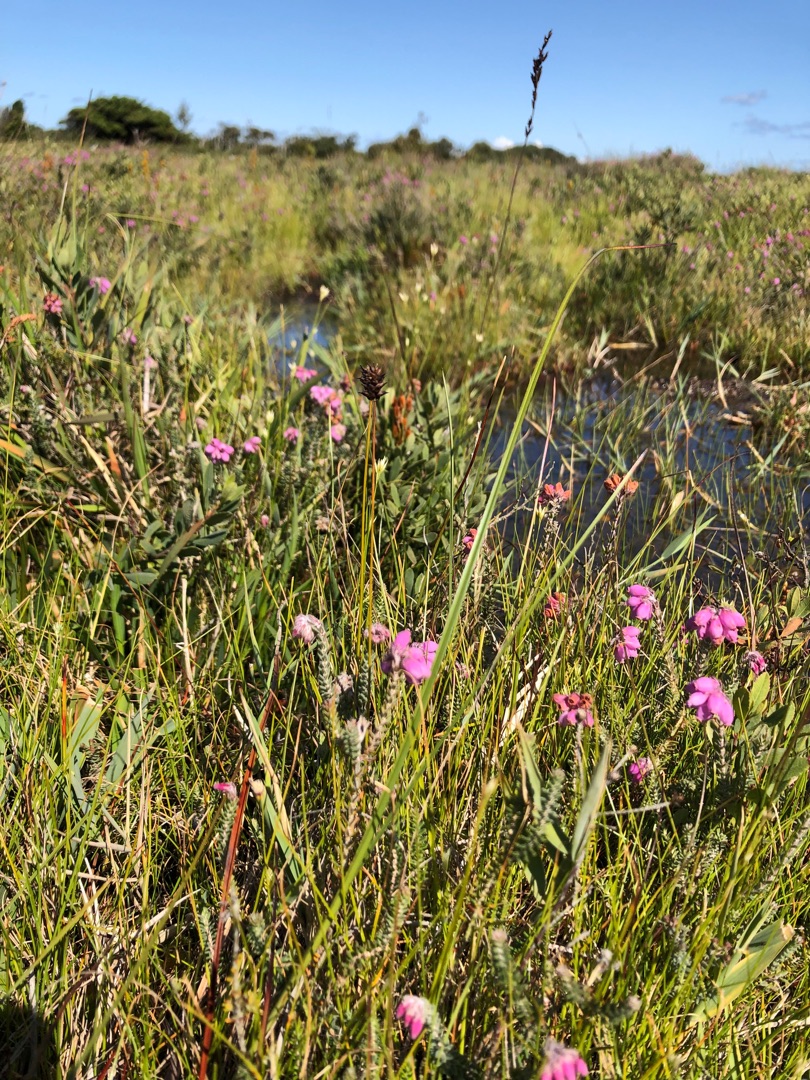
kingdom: Plantae
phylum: Tracheophyta
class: Liliopsida
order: Poales
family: Cyperaceae
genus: Carex
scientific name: Carex dioica
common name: Tvebo star
